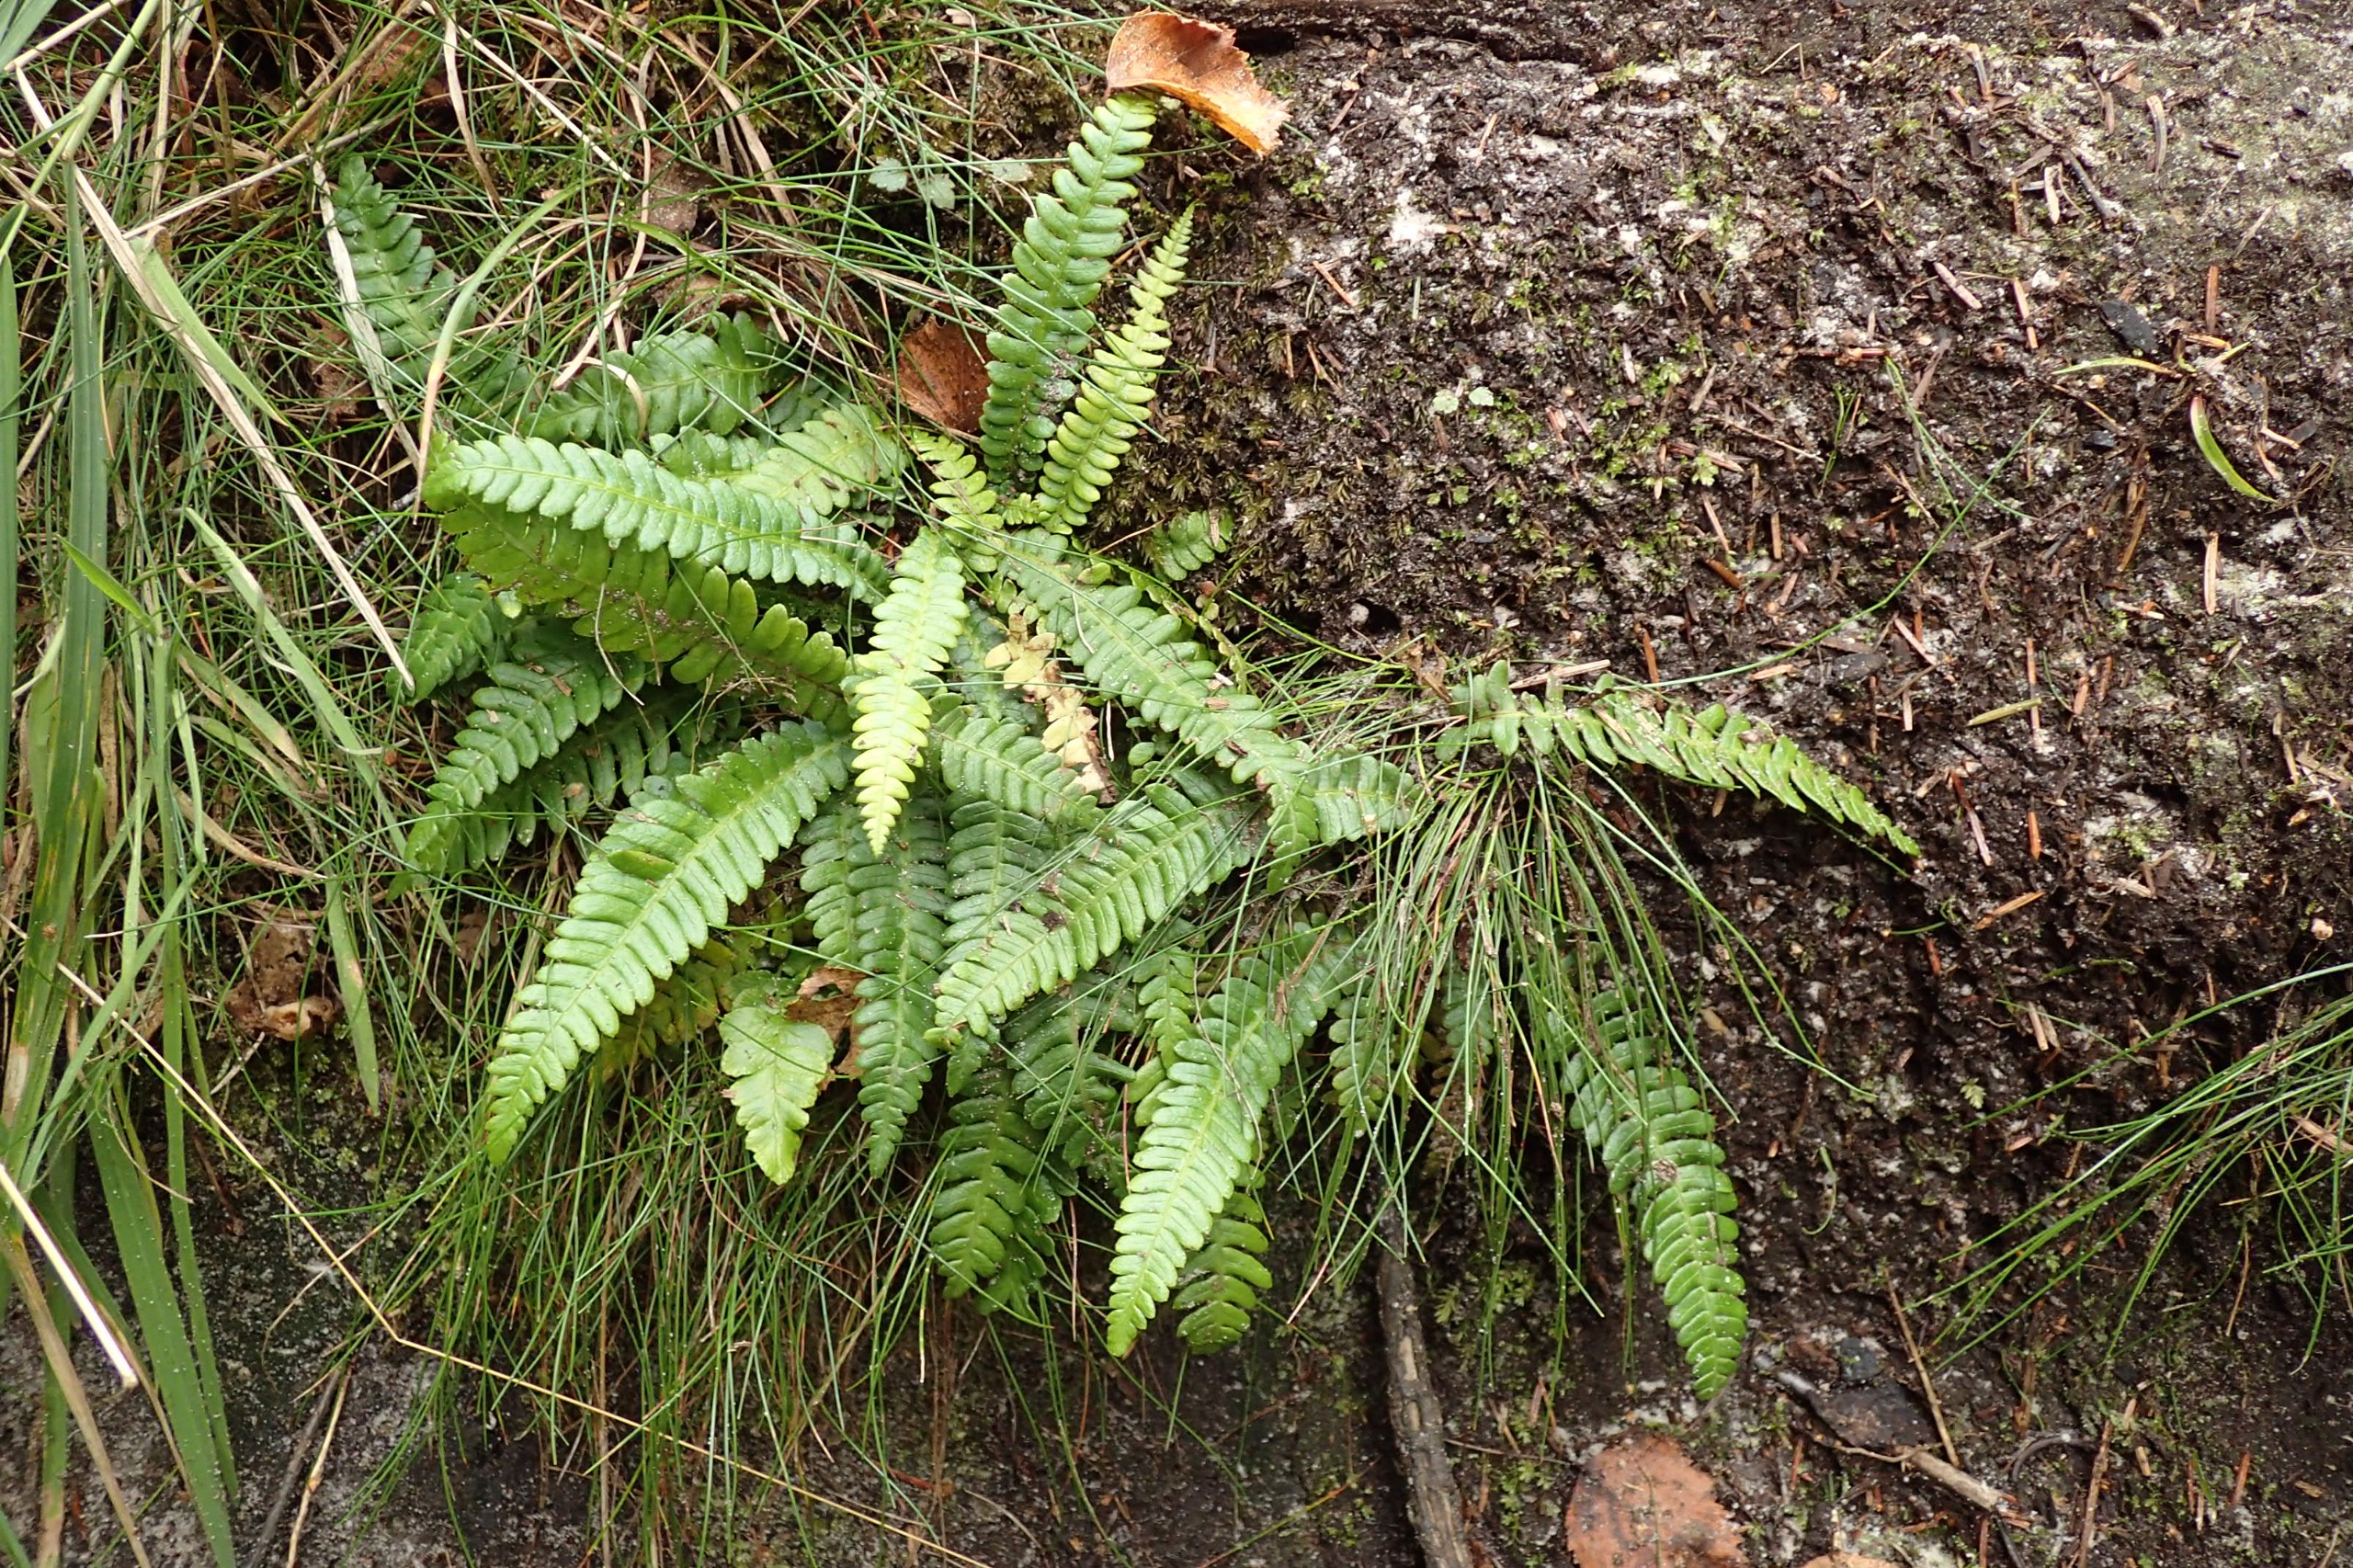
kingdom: Plantae
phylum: Tracheophyta
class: Polypodiopsida
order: Polypodiales
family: Blechnaceae
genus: Struthiopteris
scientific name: Struthiopteris spicant
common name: Kambregne
